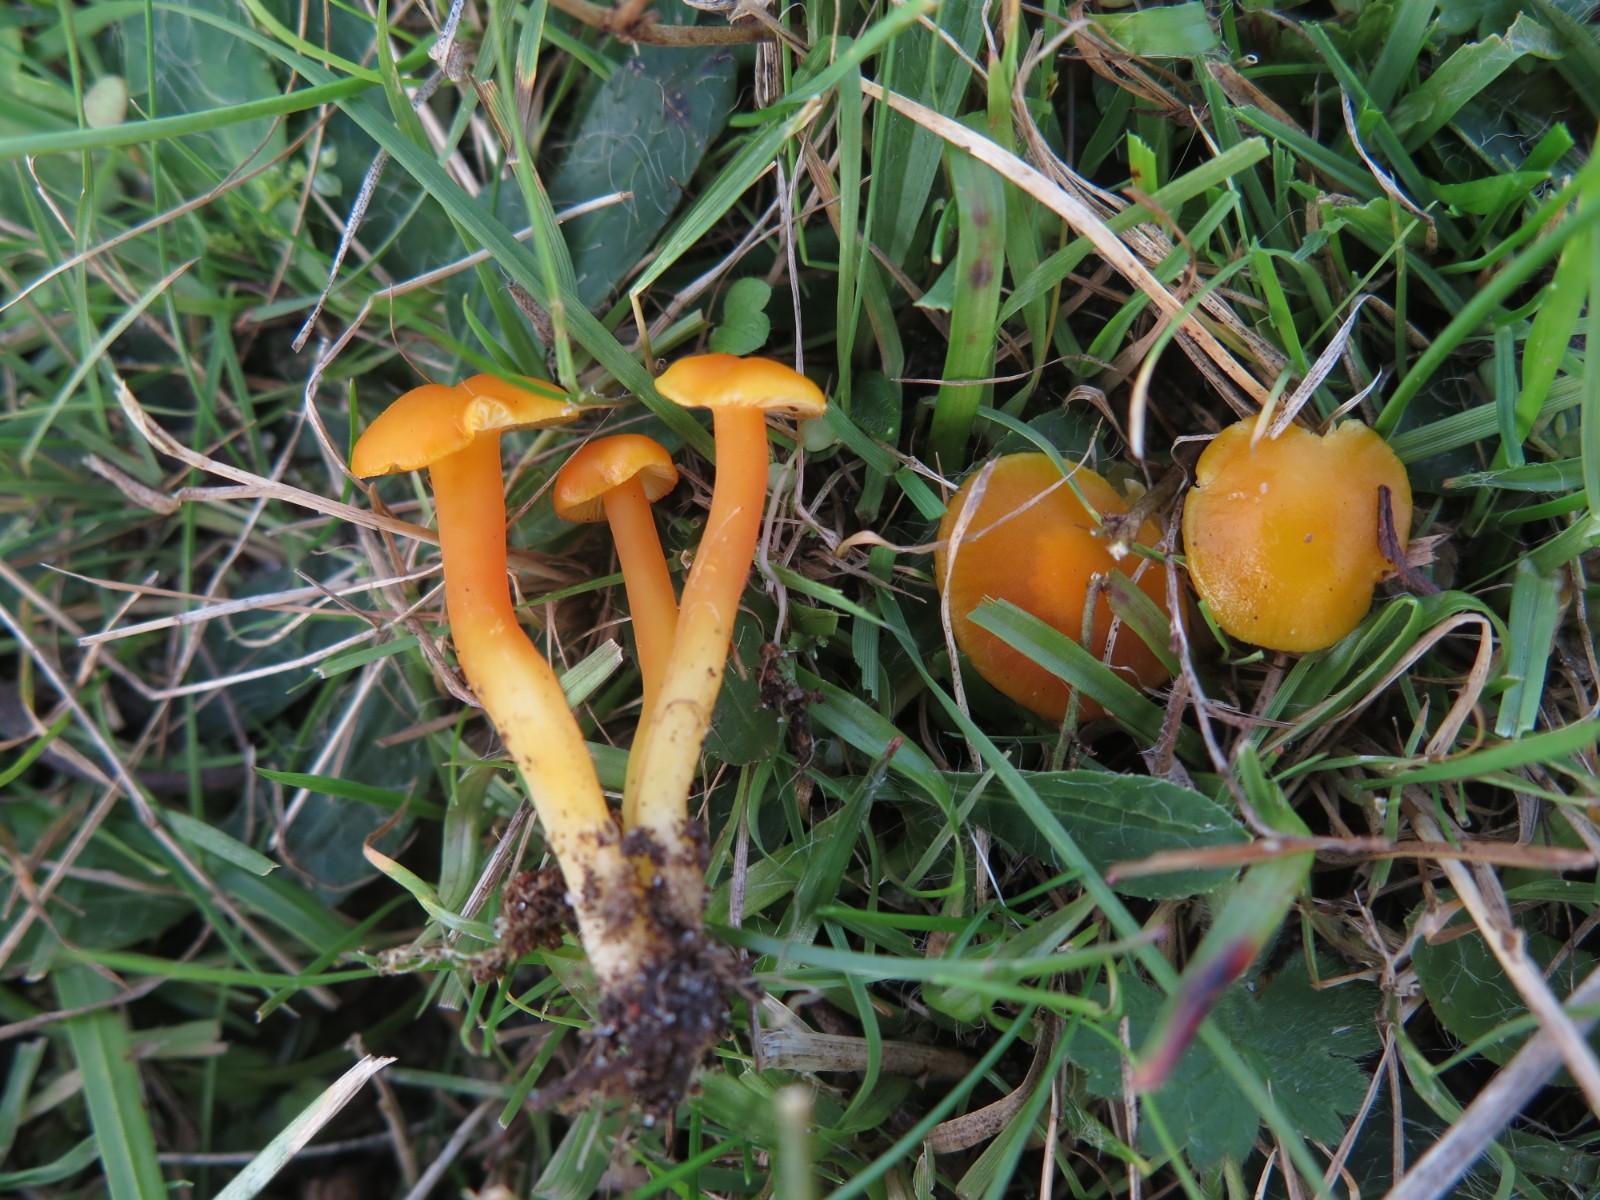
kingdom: Fungi
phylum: Basidiomycota
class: Agaricomycetes
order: Agaricales
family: Hygrophoraceae
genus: Hygrocybe
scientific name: Hygrocybe ceracea
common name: voksgul vokshat
